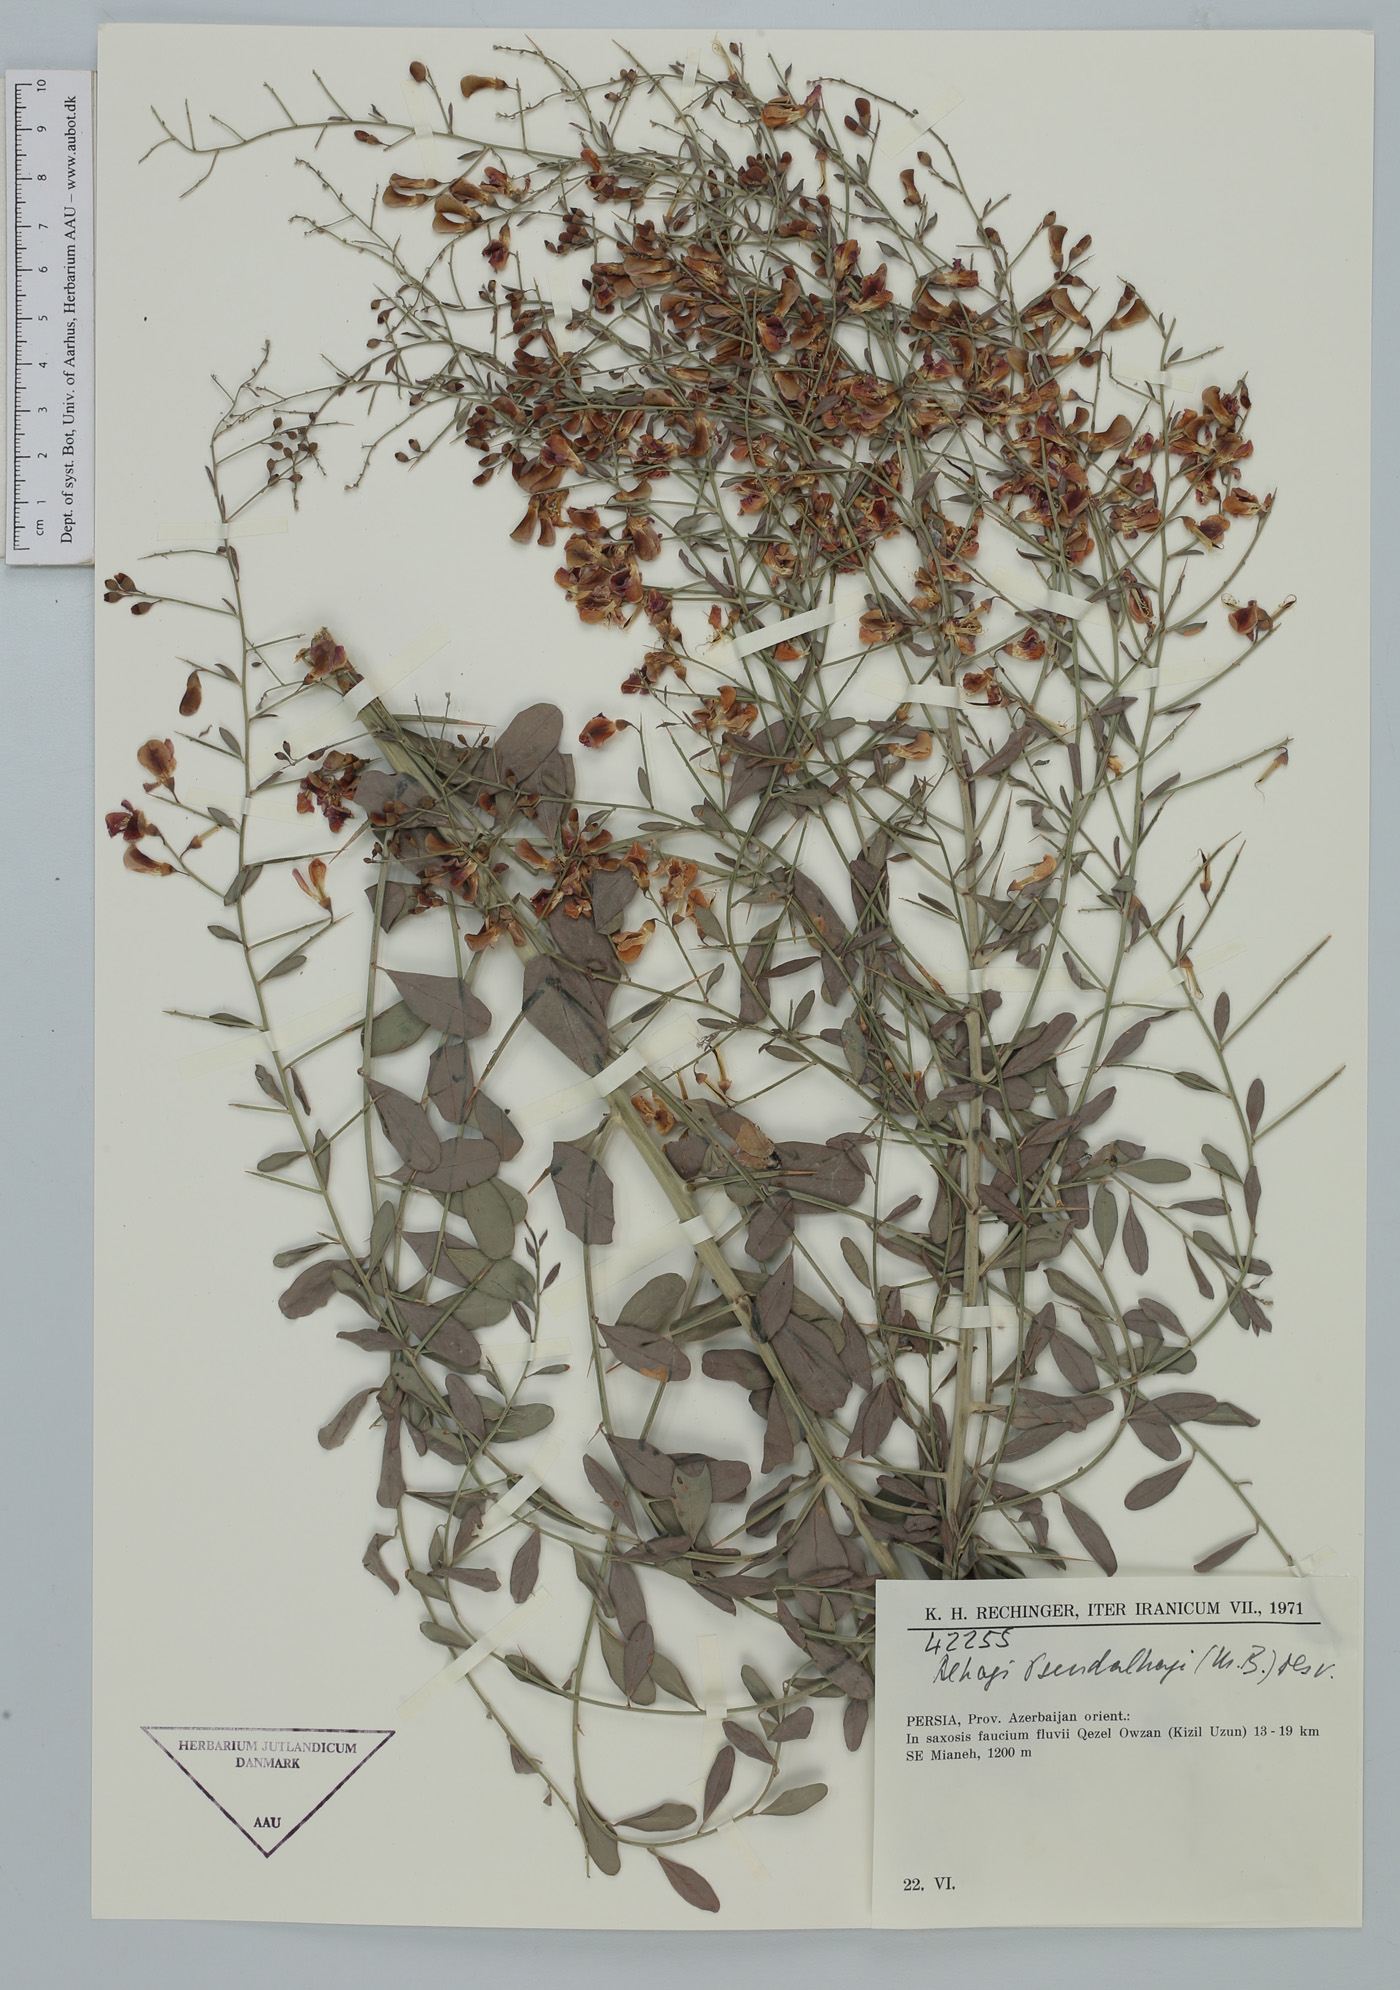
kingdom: Plantae
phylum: Tracheophyta
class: Magnoliopsida
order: Fabales
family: Fabaceae
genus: Alhagi
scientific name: Alhagi pseudalhagi
